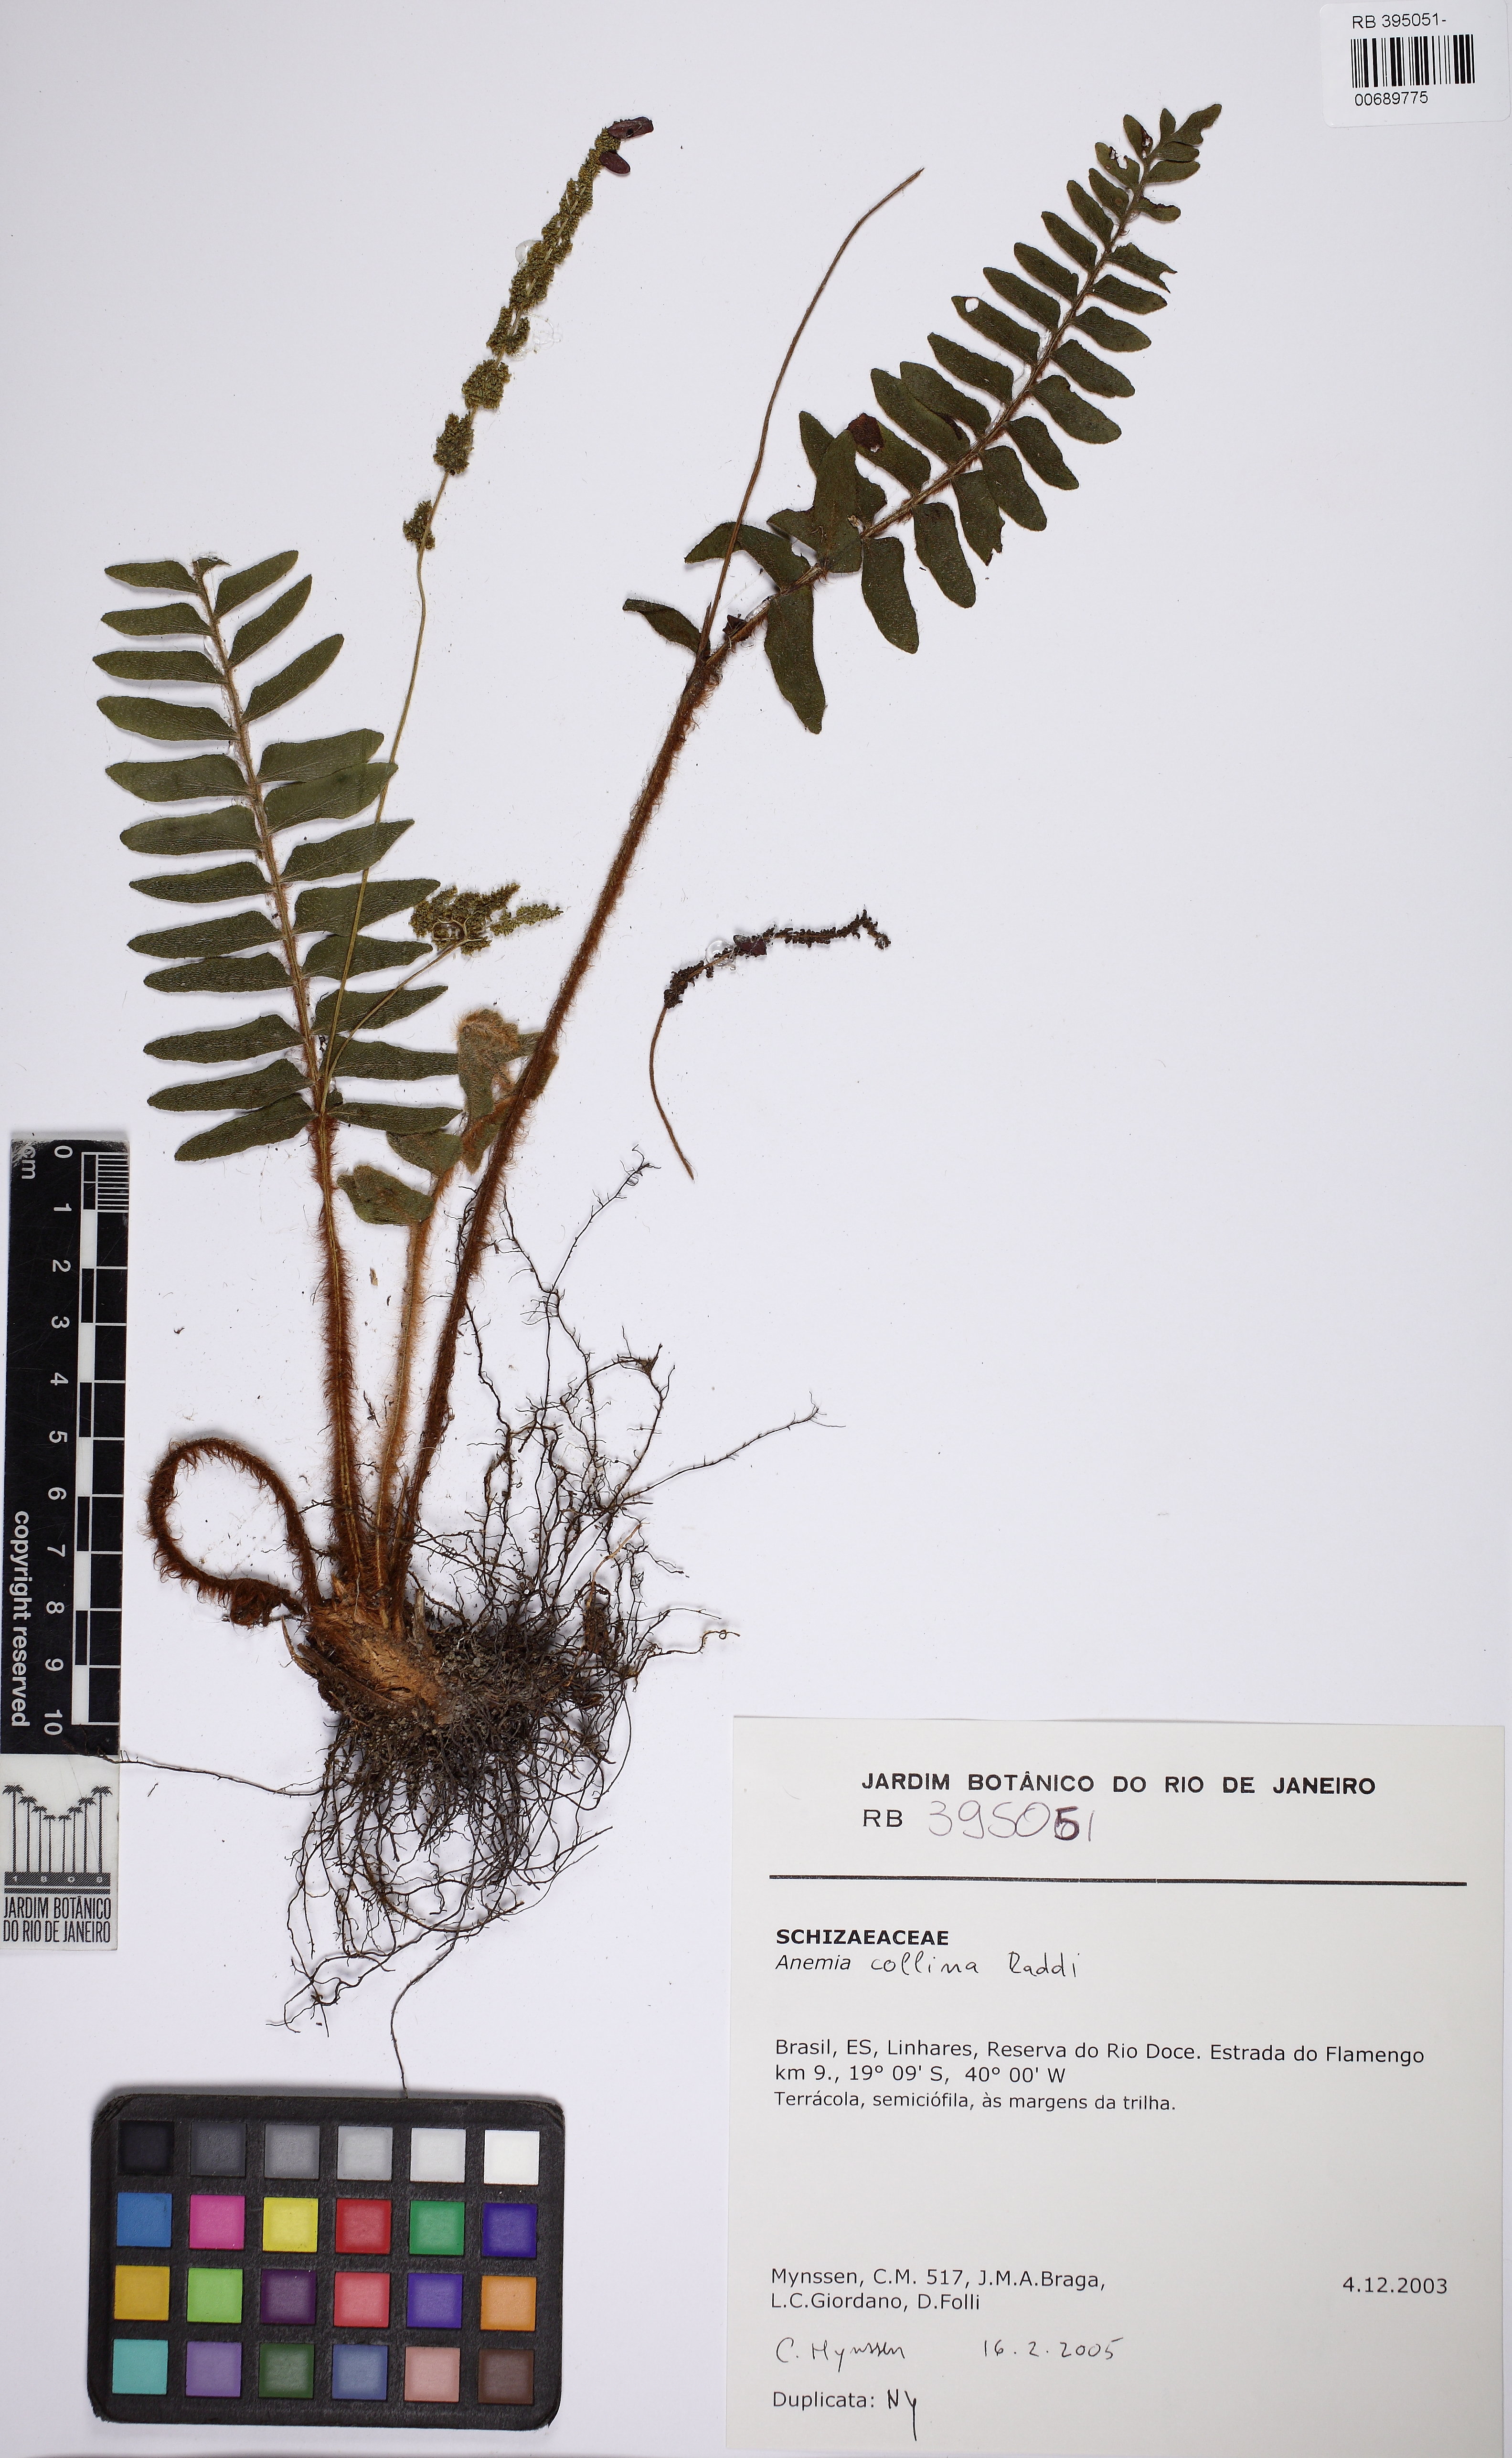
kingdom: Plantae
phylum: Tracheophyta
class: Polypodiopsida
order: Schizaeales
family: Anemiaceae
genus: Anemia
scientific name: Anemia collina
